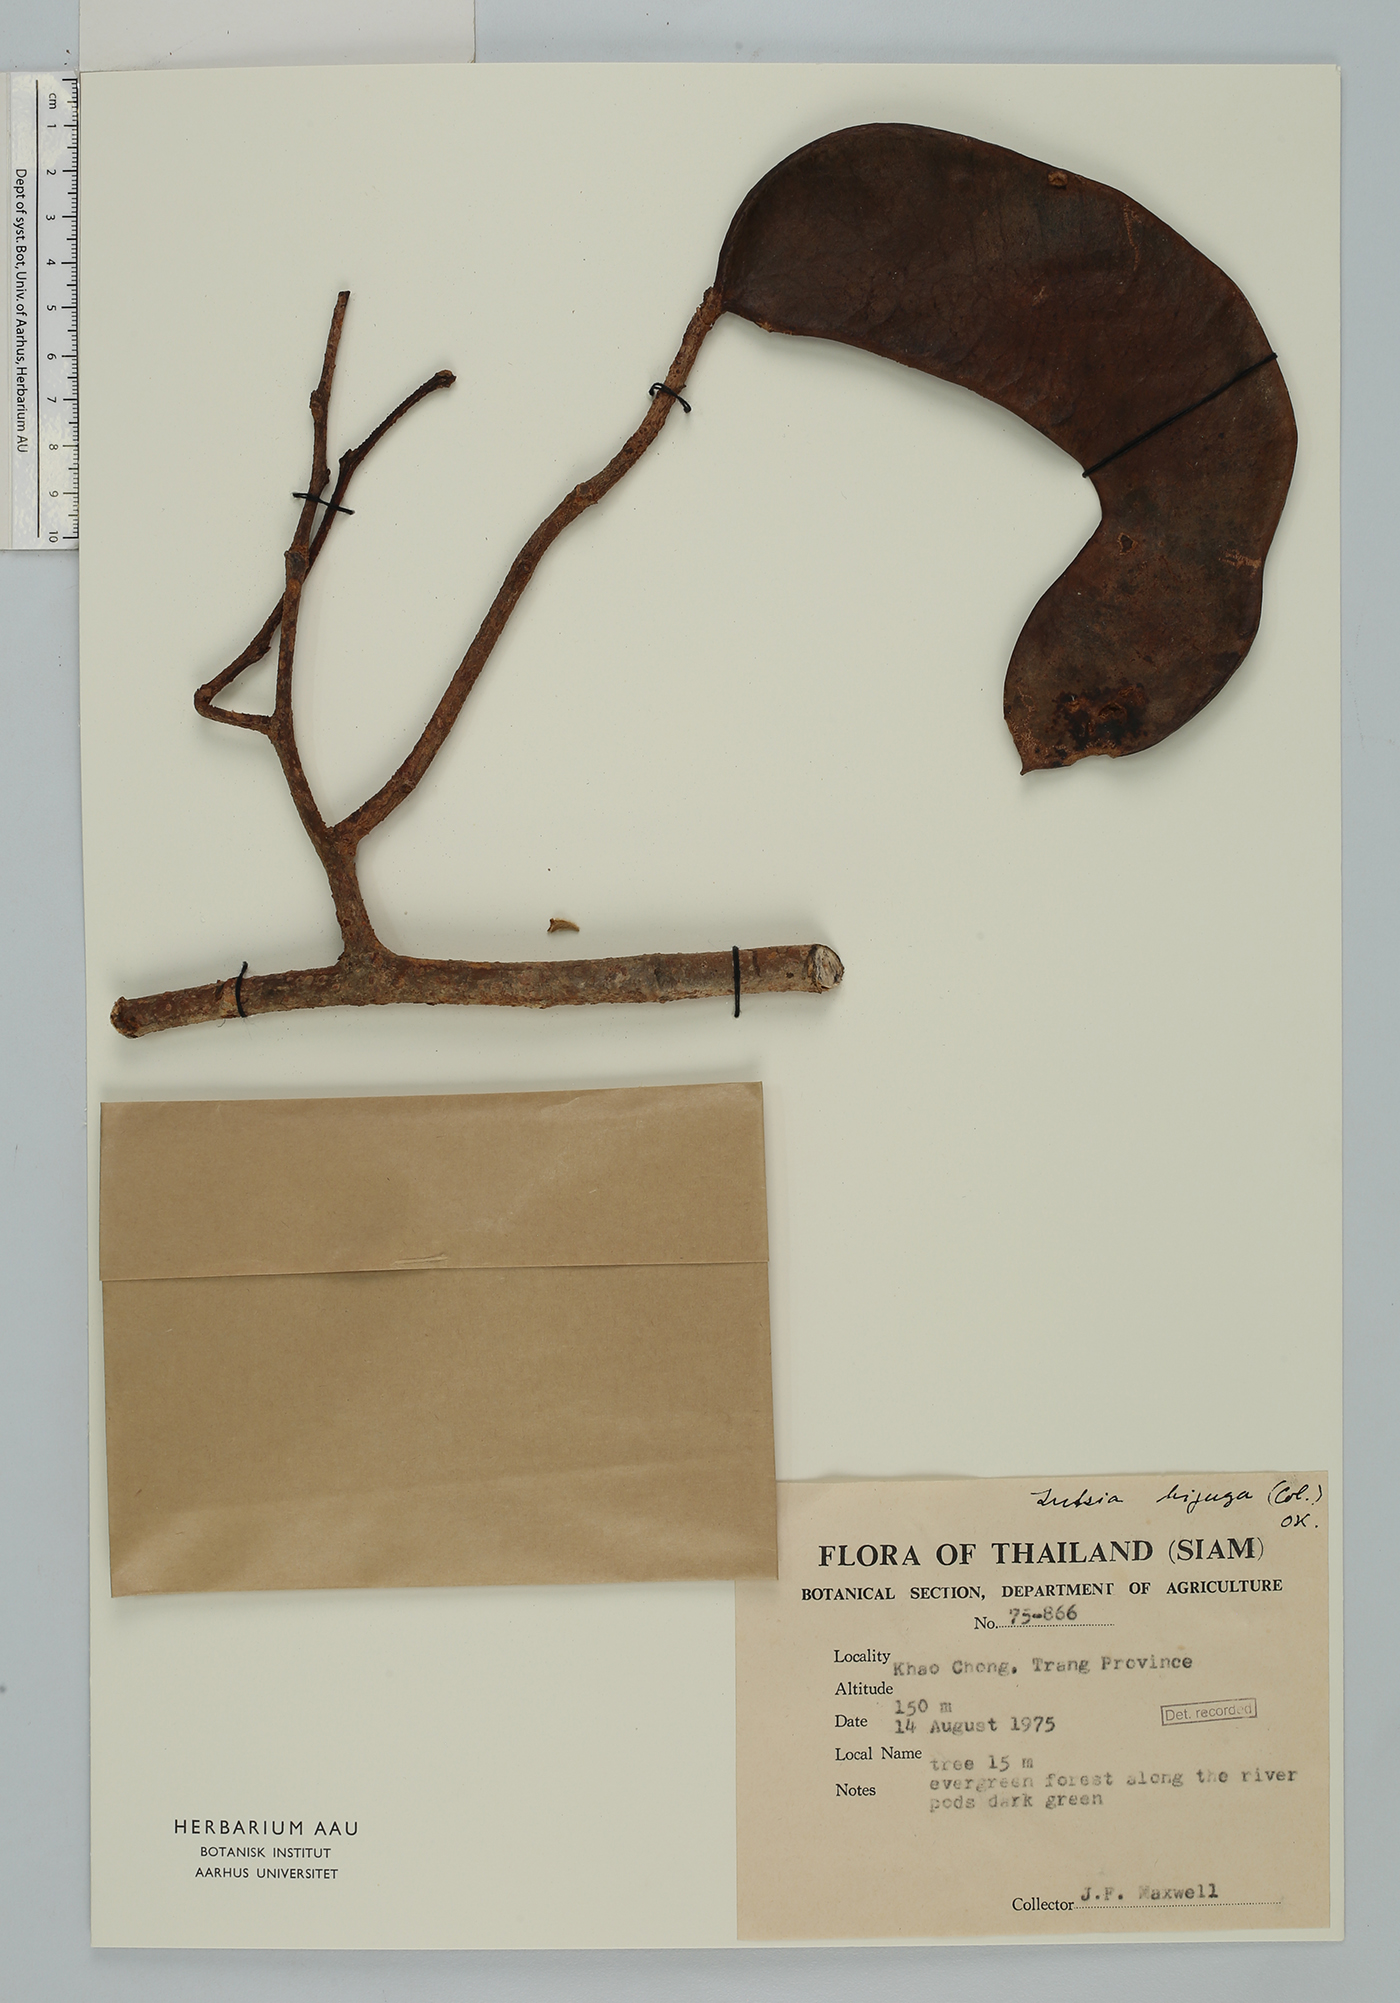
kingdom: Plantae
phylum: Tracheophyta
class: Magnoliopsida
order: Fabales
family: Fabaceae
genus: Intsia
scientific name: Intsia bijuga
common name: Moluccan ironwood
